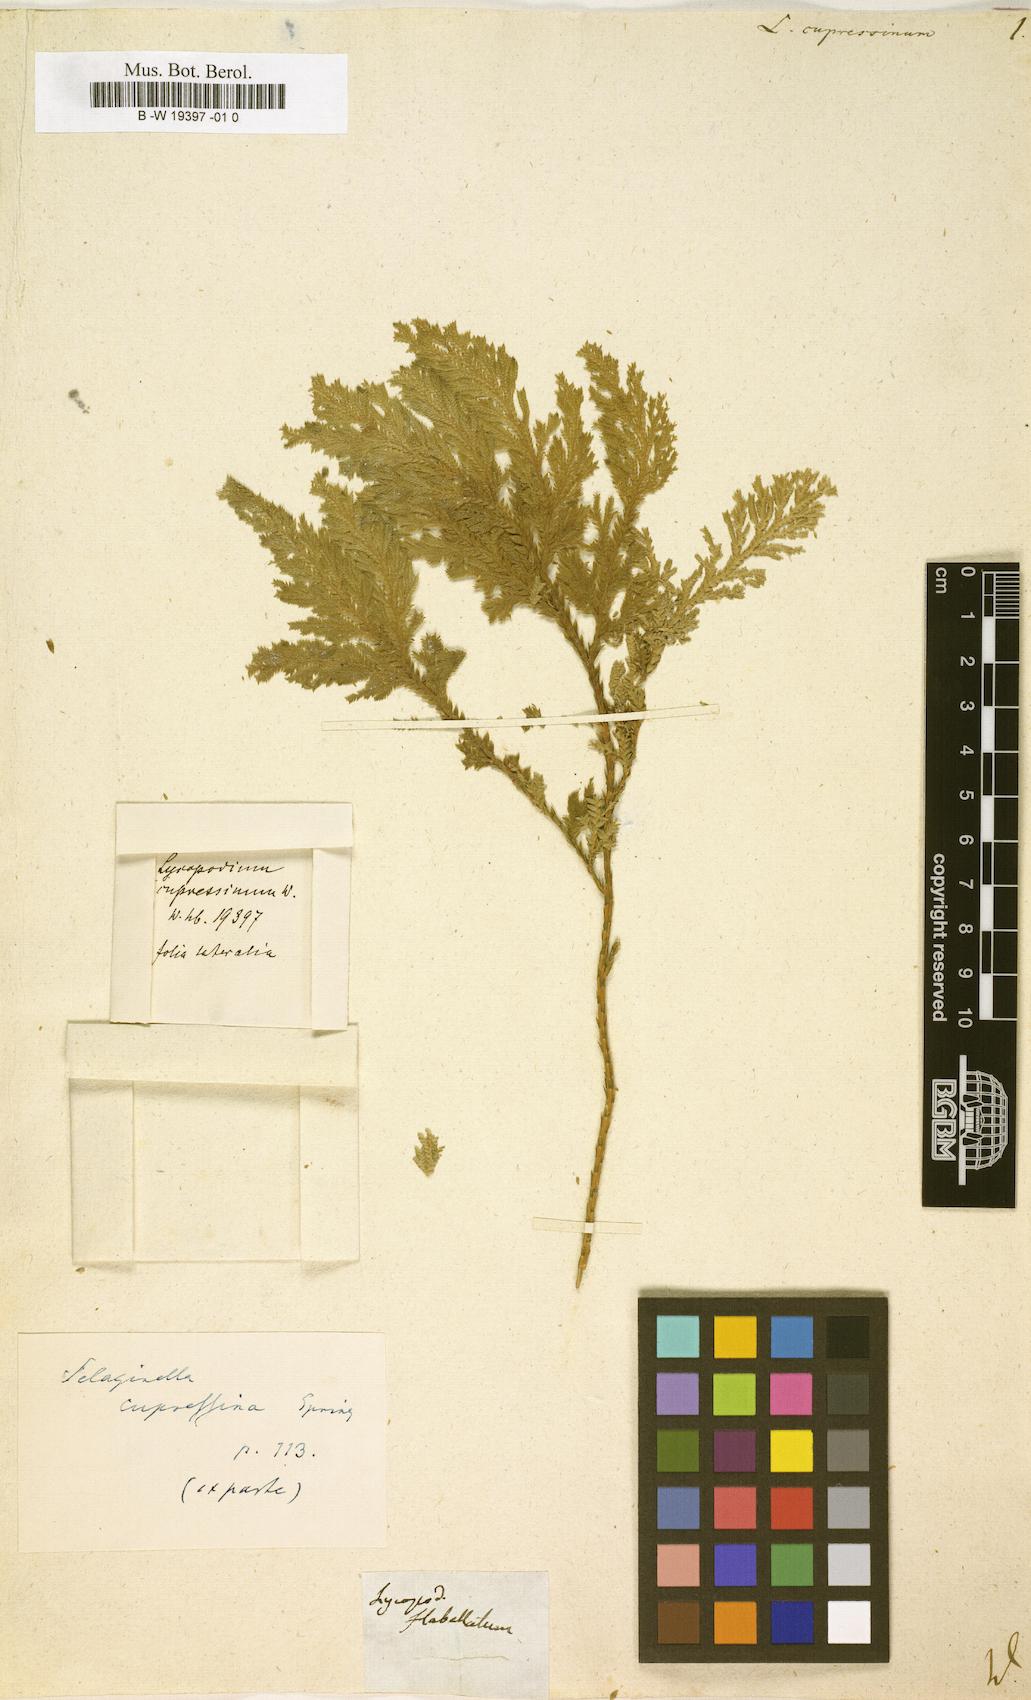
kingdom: Plantae
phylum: Tracheophyta
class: Lycopodiopsida
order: Selaginellales
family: Selaginellaceae
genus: Selaginella
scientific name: Selaginella cupressina
